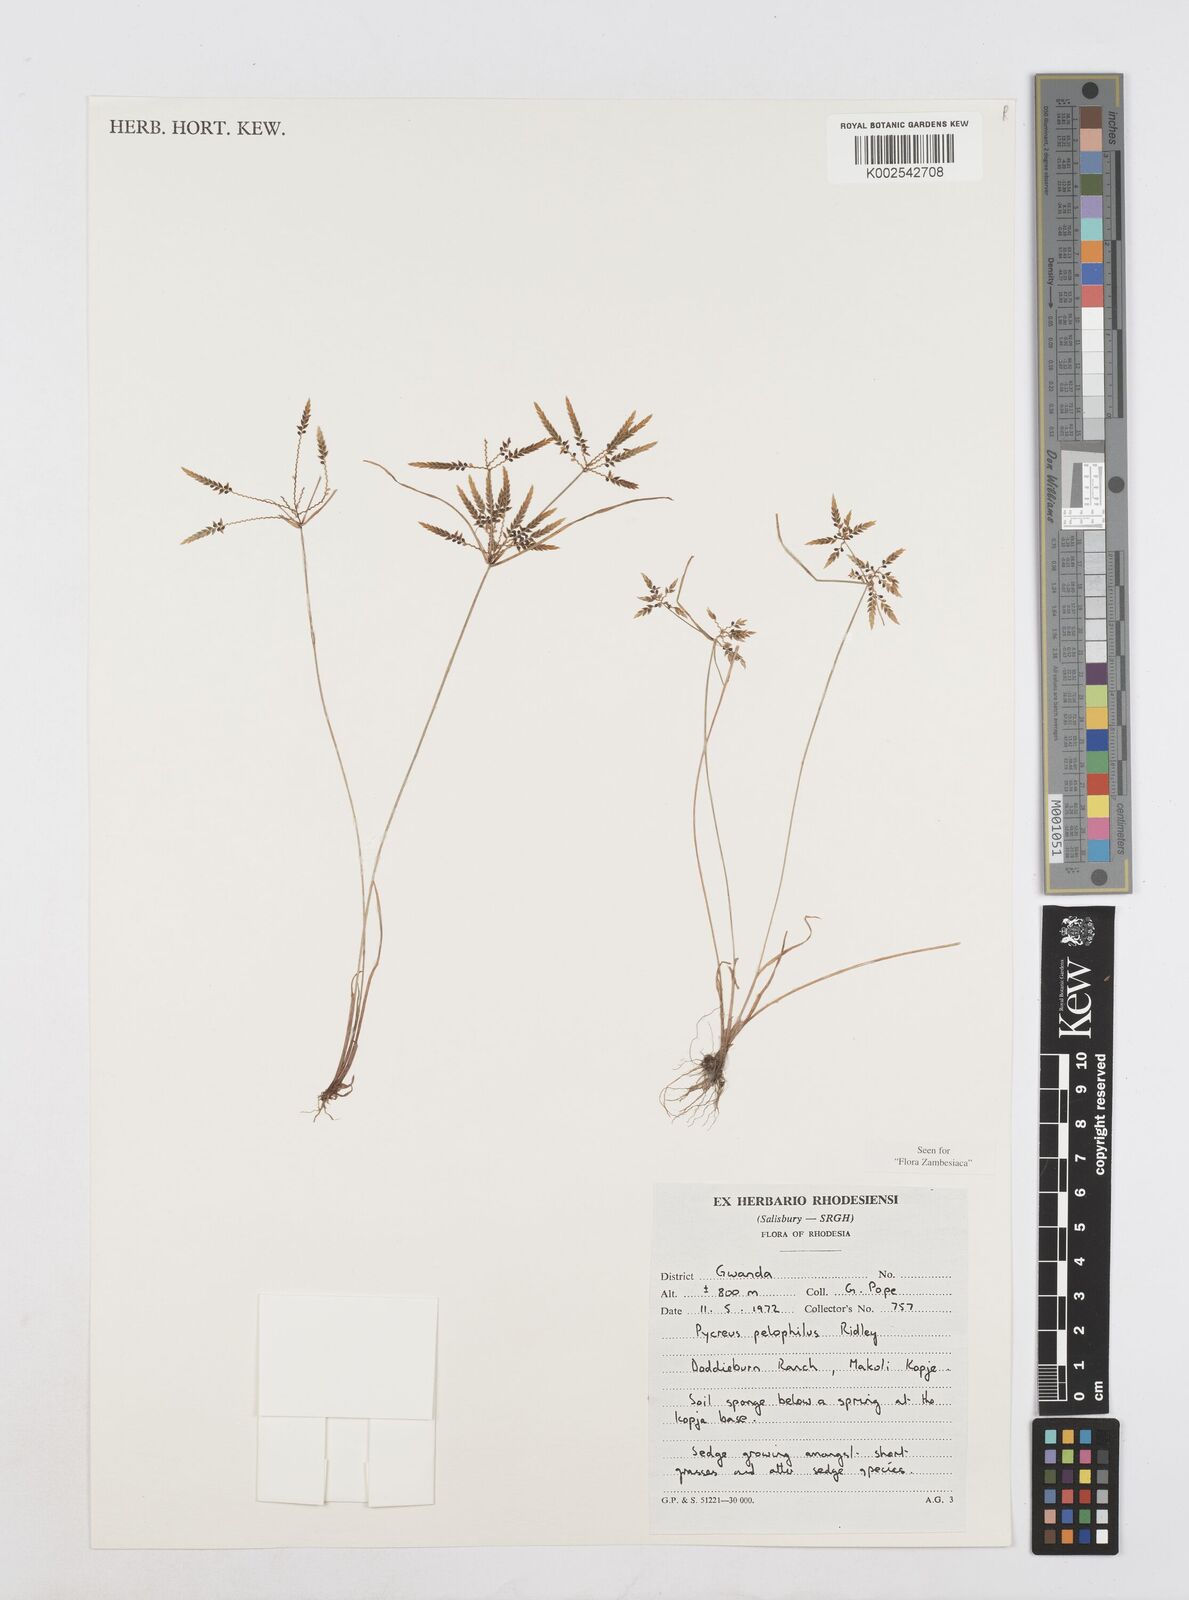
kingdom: Plantae
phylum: Tracheophyta
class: Liliopsida
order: Poales
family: Cyperaceae
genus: Cyperus
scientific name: Cyperus pelophilus
